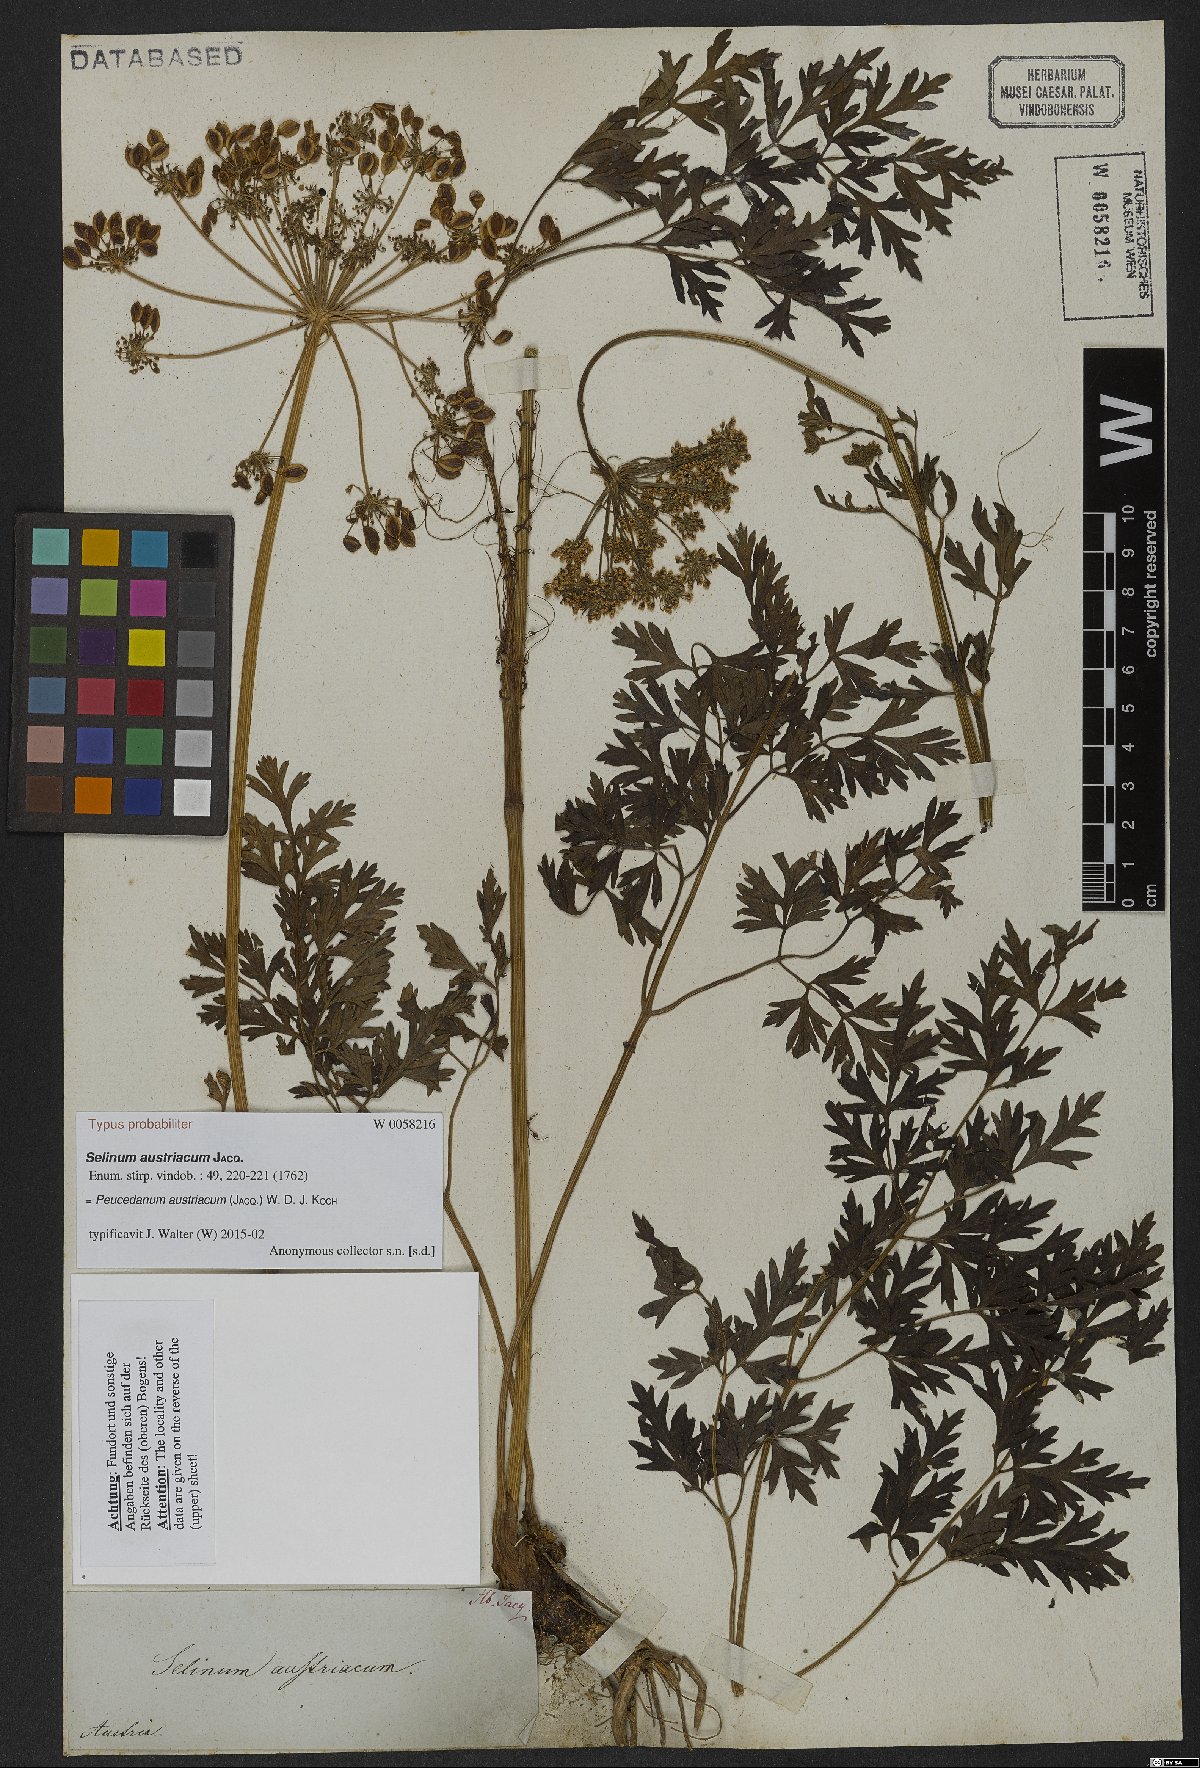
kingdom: Plantae
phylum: Tracheophyta
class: Magnoliopsida
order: Apiales
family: Apiaceae
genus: Peucedanum
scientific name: Peucedanum austriacum
